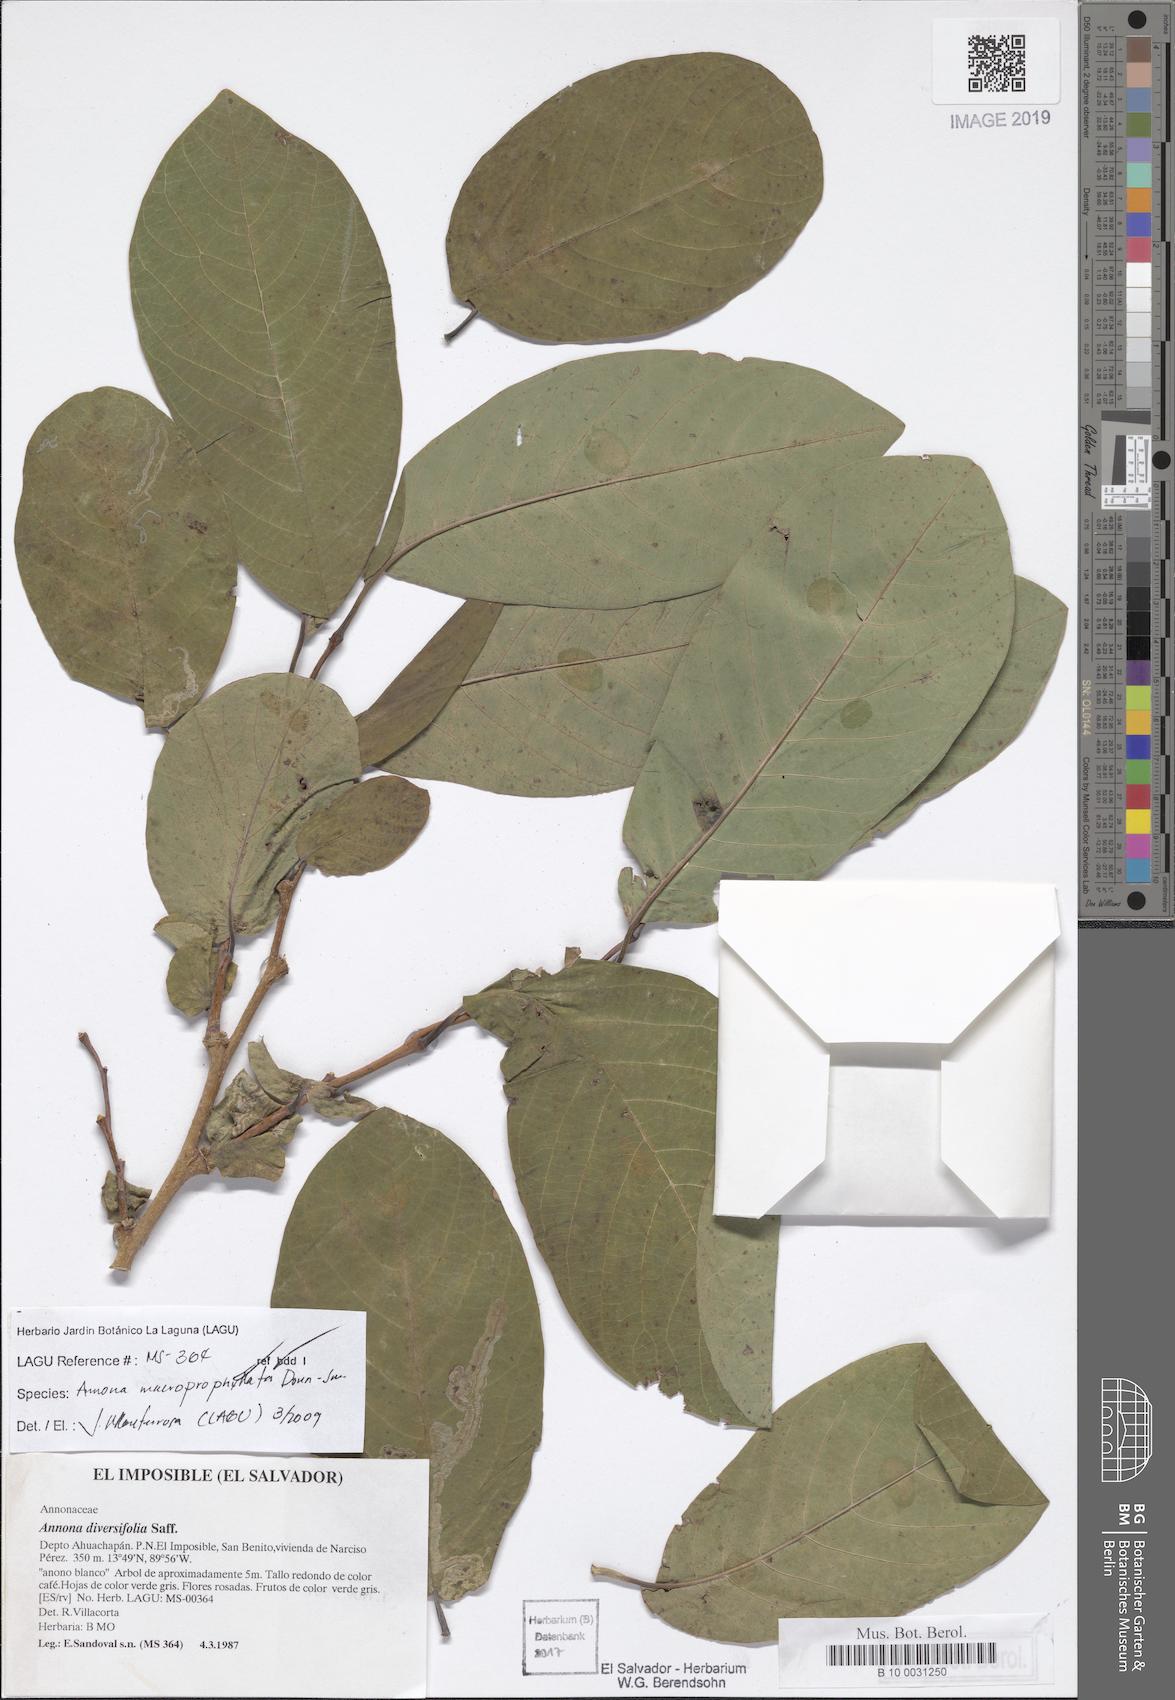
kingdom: Plantae
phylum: Tracheophyta
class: Magnoliopsida
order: Magnoliales
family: Annonaceae
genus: Annona
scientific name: Annona macroprophyllata
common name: Ilama
